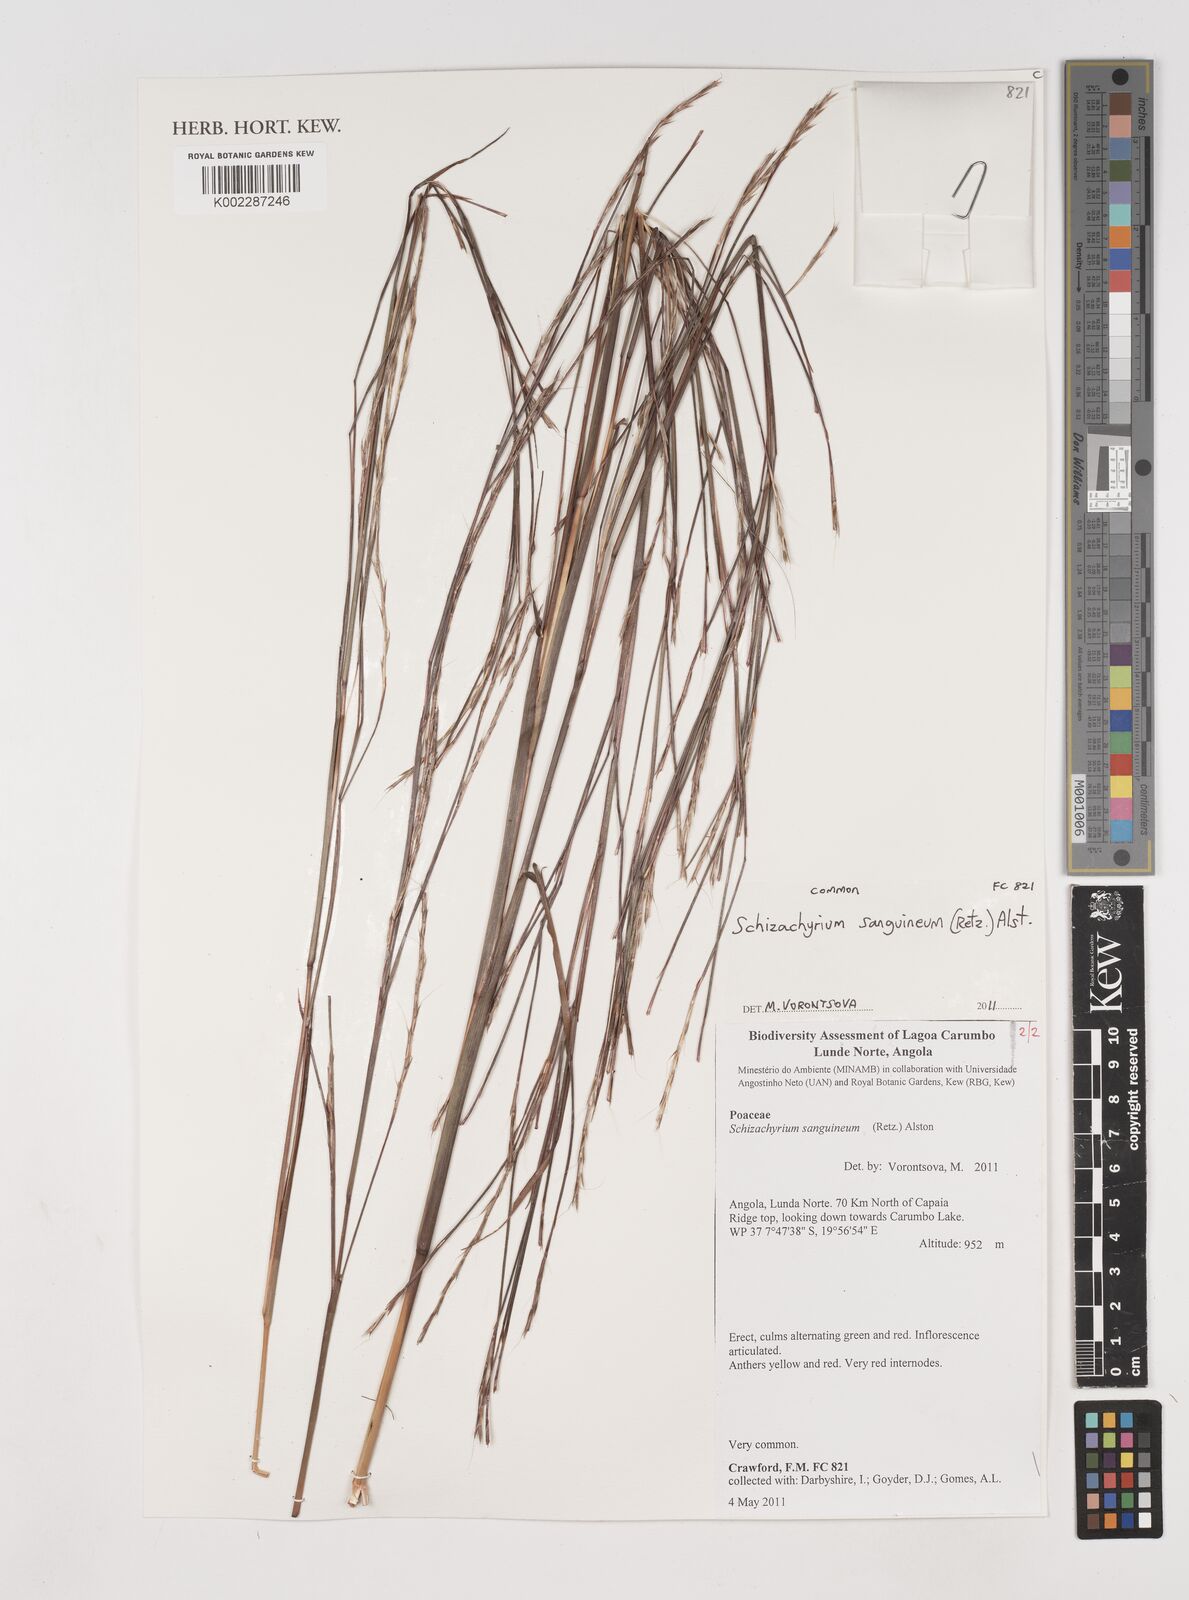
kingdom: Plantae
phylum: Tracheophyta
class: Liliopsida
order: Poales
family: Poaceae
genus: Schizachyrium
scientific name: Schizachyrium sanguineum
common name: Crimson bluestem
